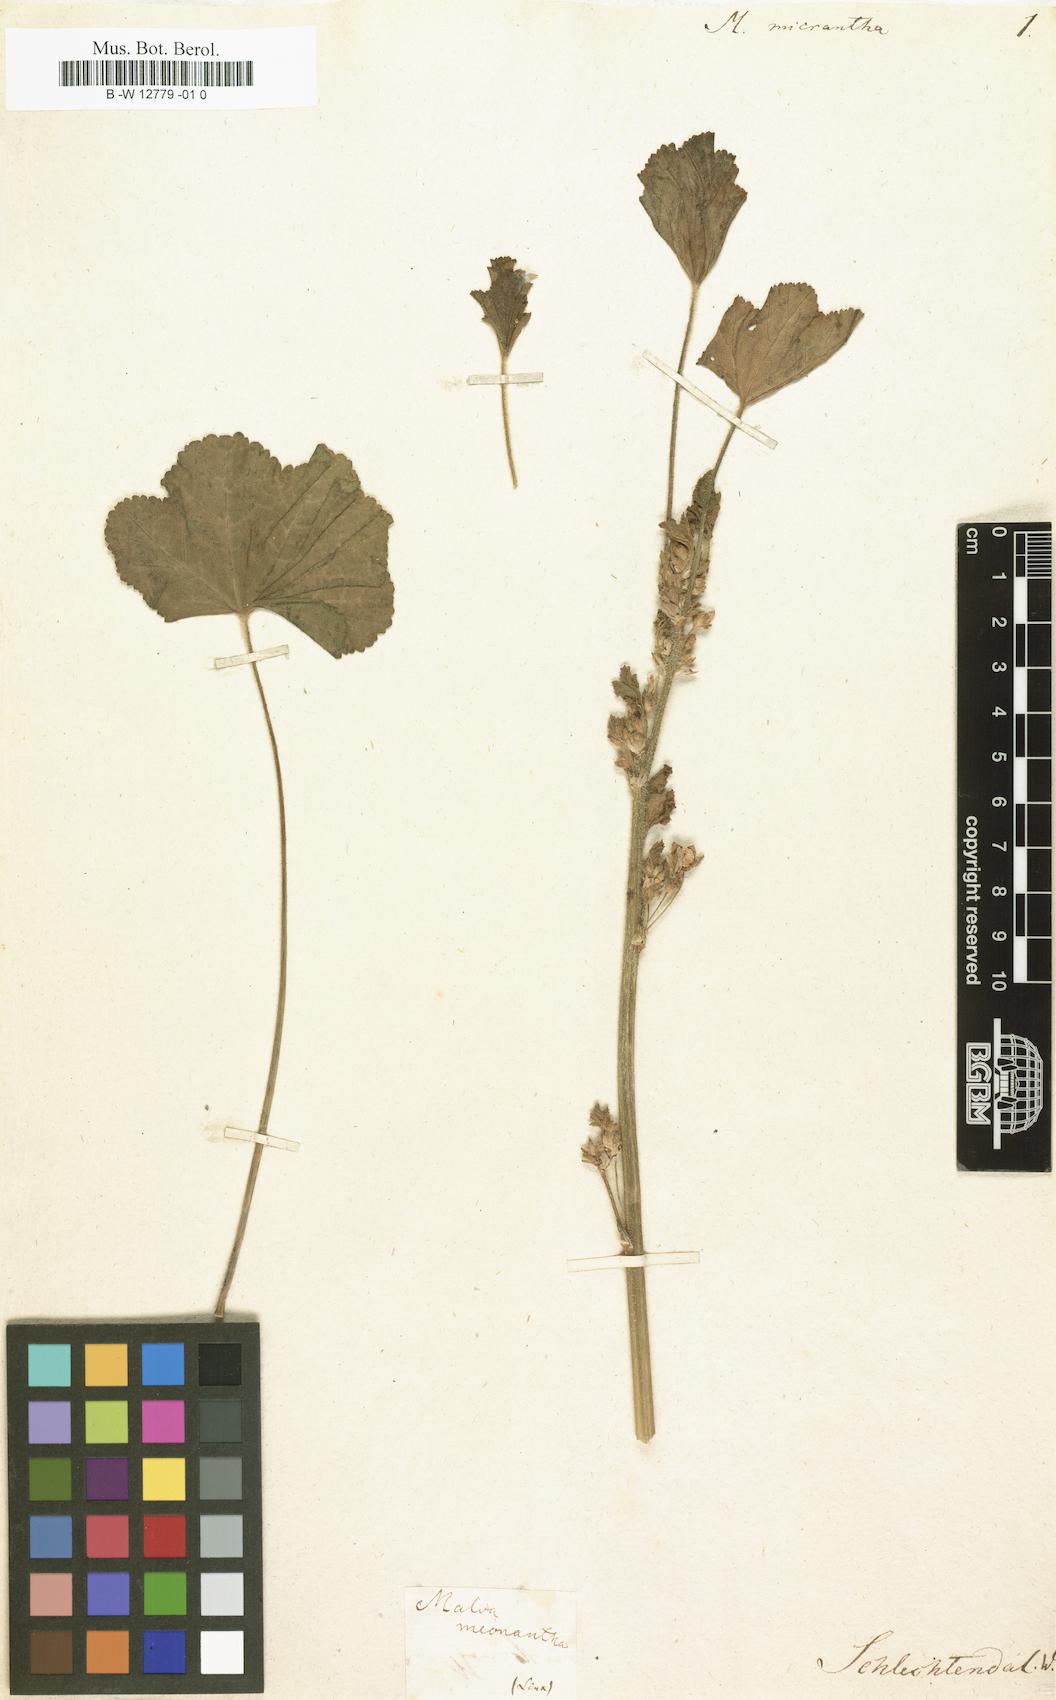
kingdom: Plantae
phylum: Tracheophyta
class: Magnoliopsida
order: Malvales
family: Malvaceae
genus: Malva
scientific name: Malva
